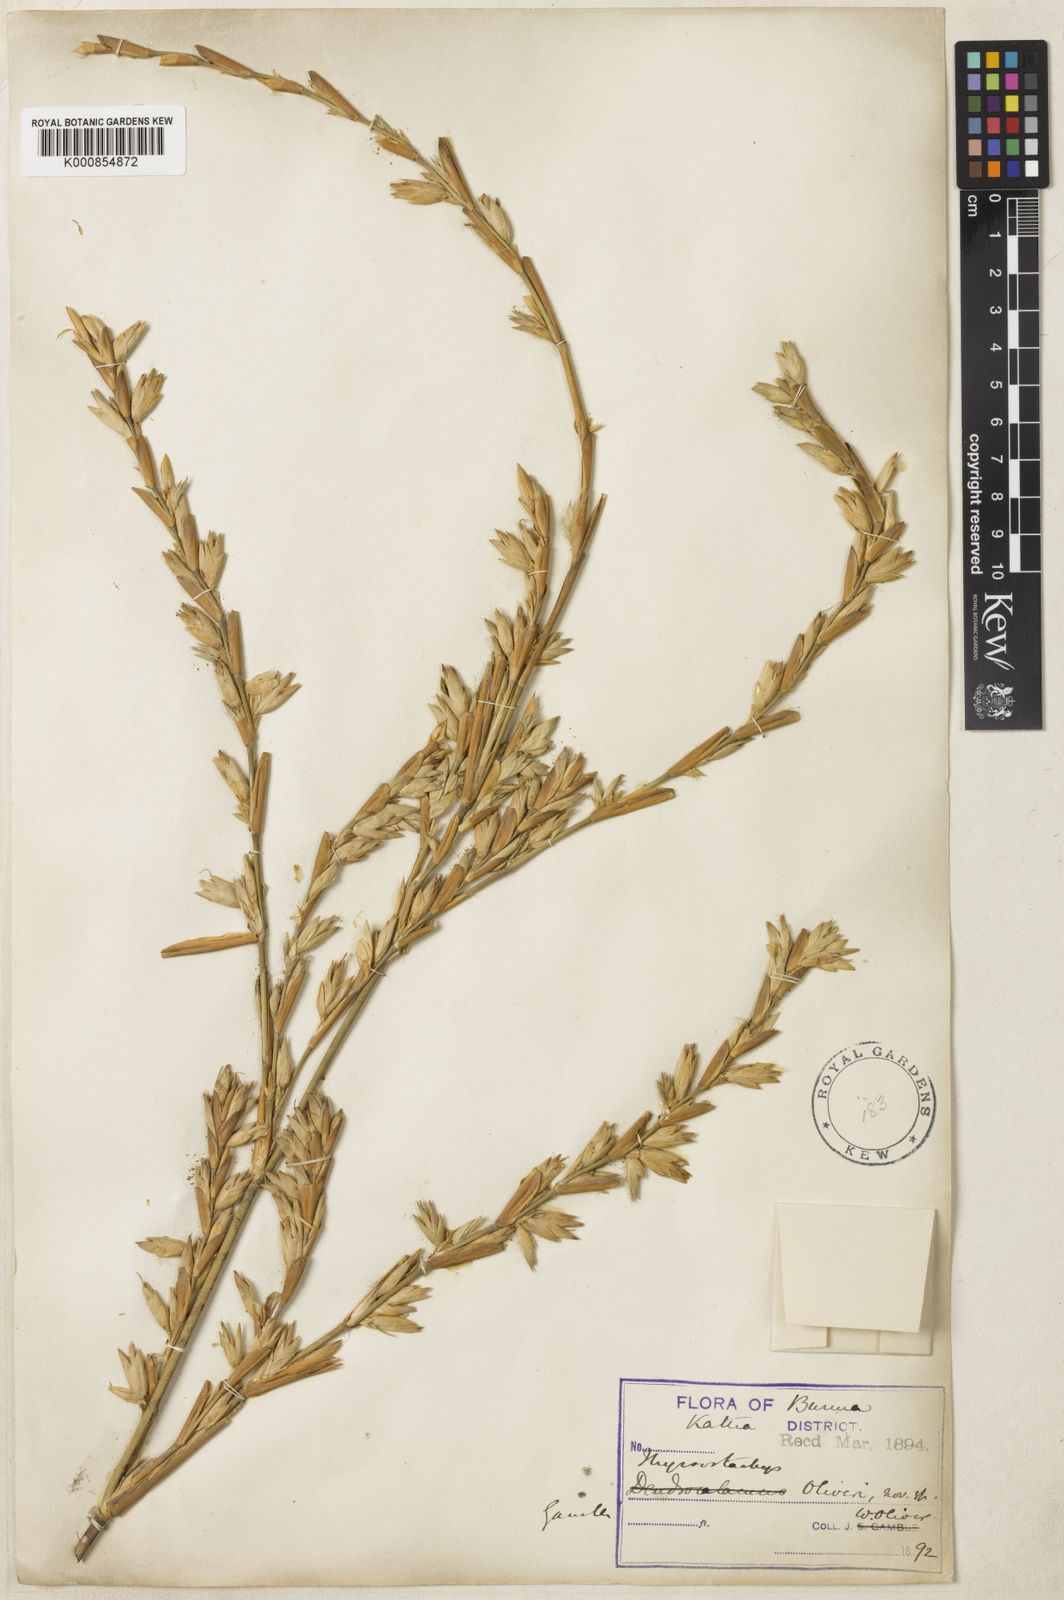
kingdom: Plantae
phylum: Tracheophyta
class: Liliopsida
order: Poales
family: Poaceae
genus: Thyrsostachys
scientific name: Thyrsostachys oliveri
